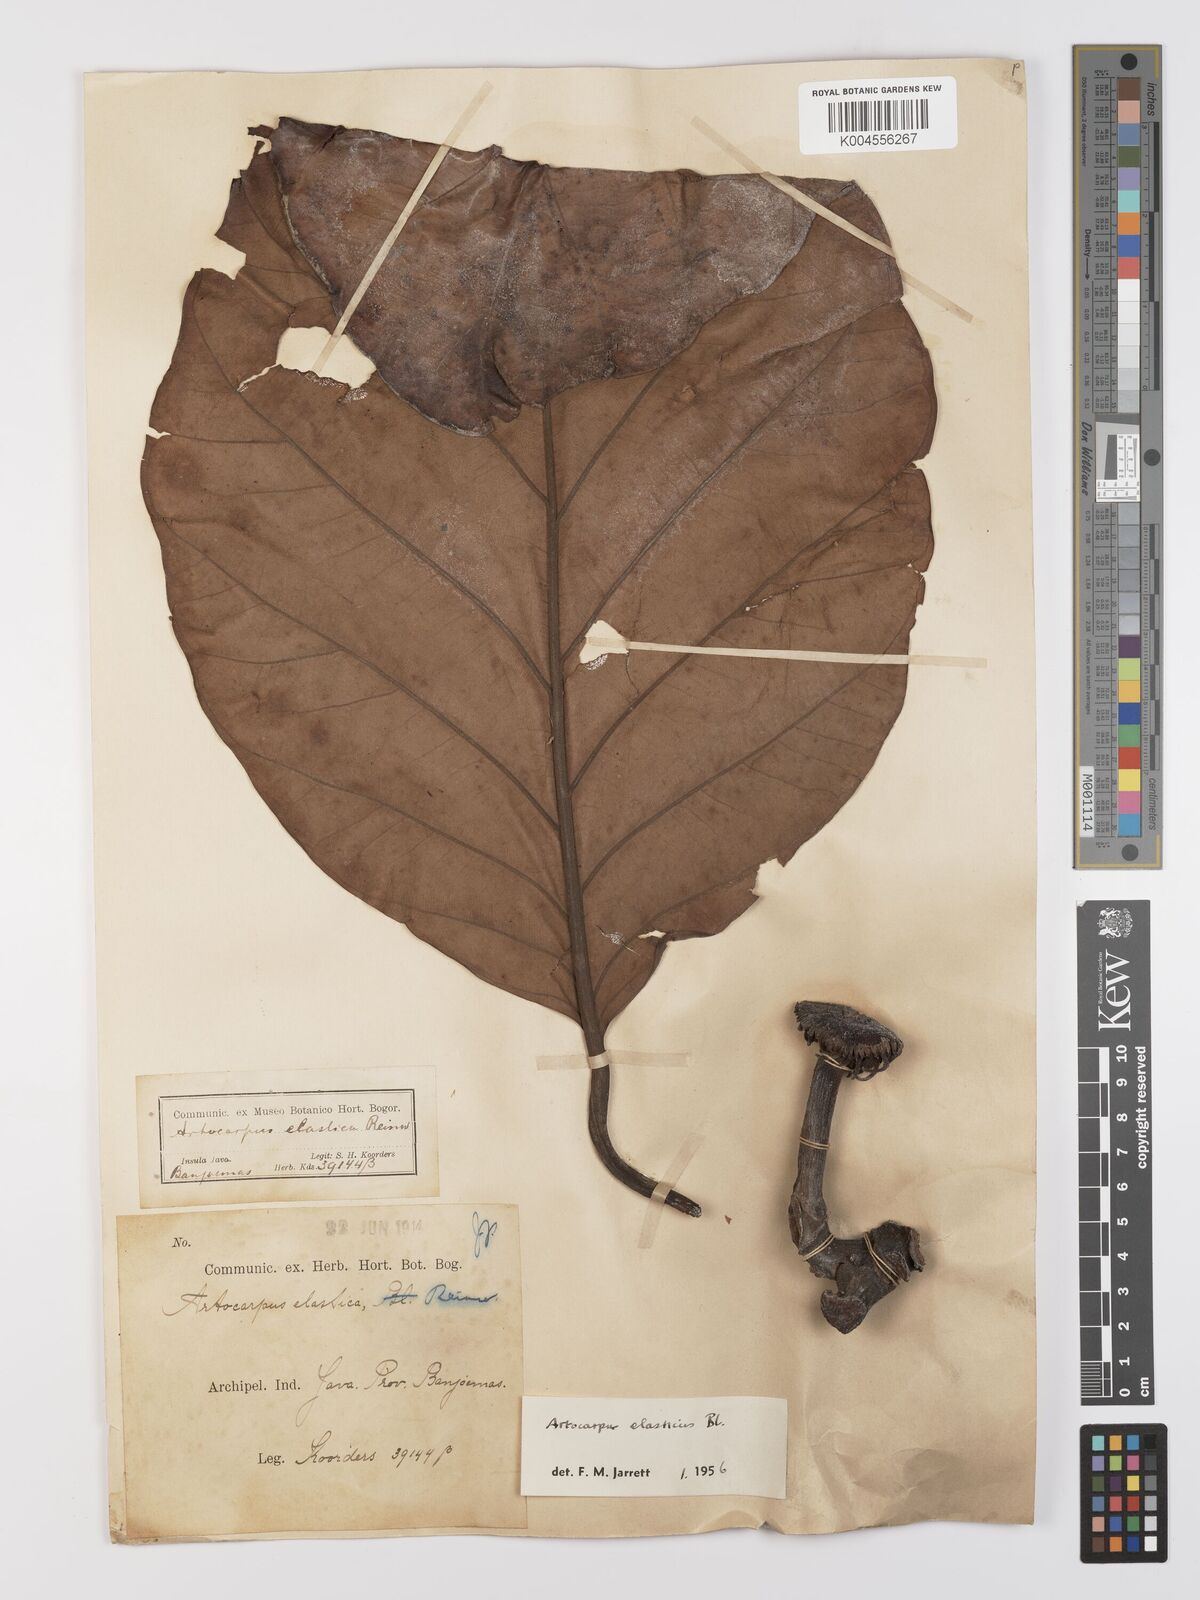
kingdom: Plantae
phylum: Tracheophyta
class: Magnoliopsida
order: Rosales
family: Moraceae
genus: Artocarpus
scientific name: Artocarpus elasticus
